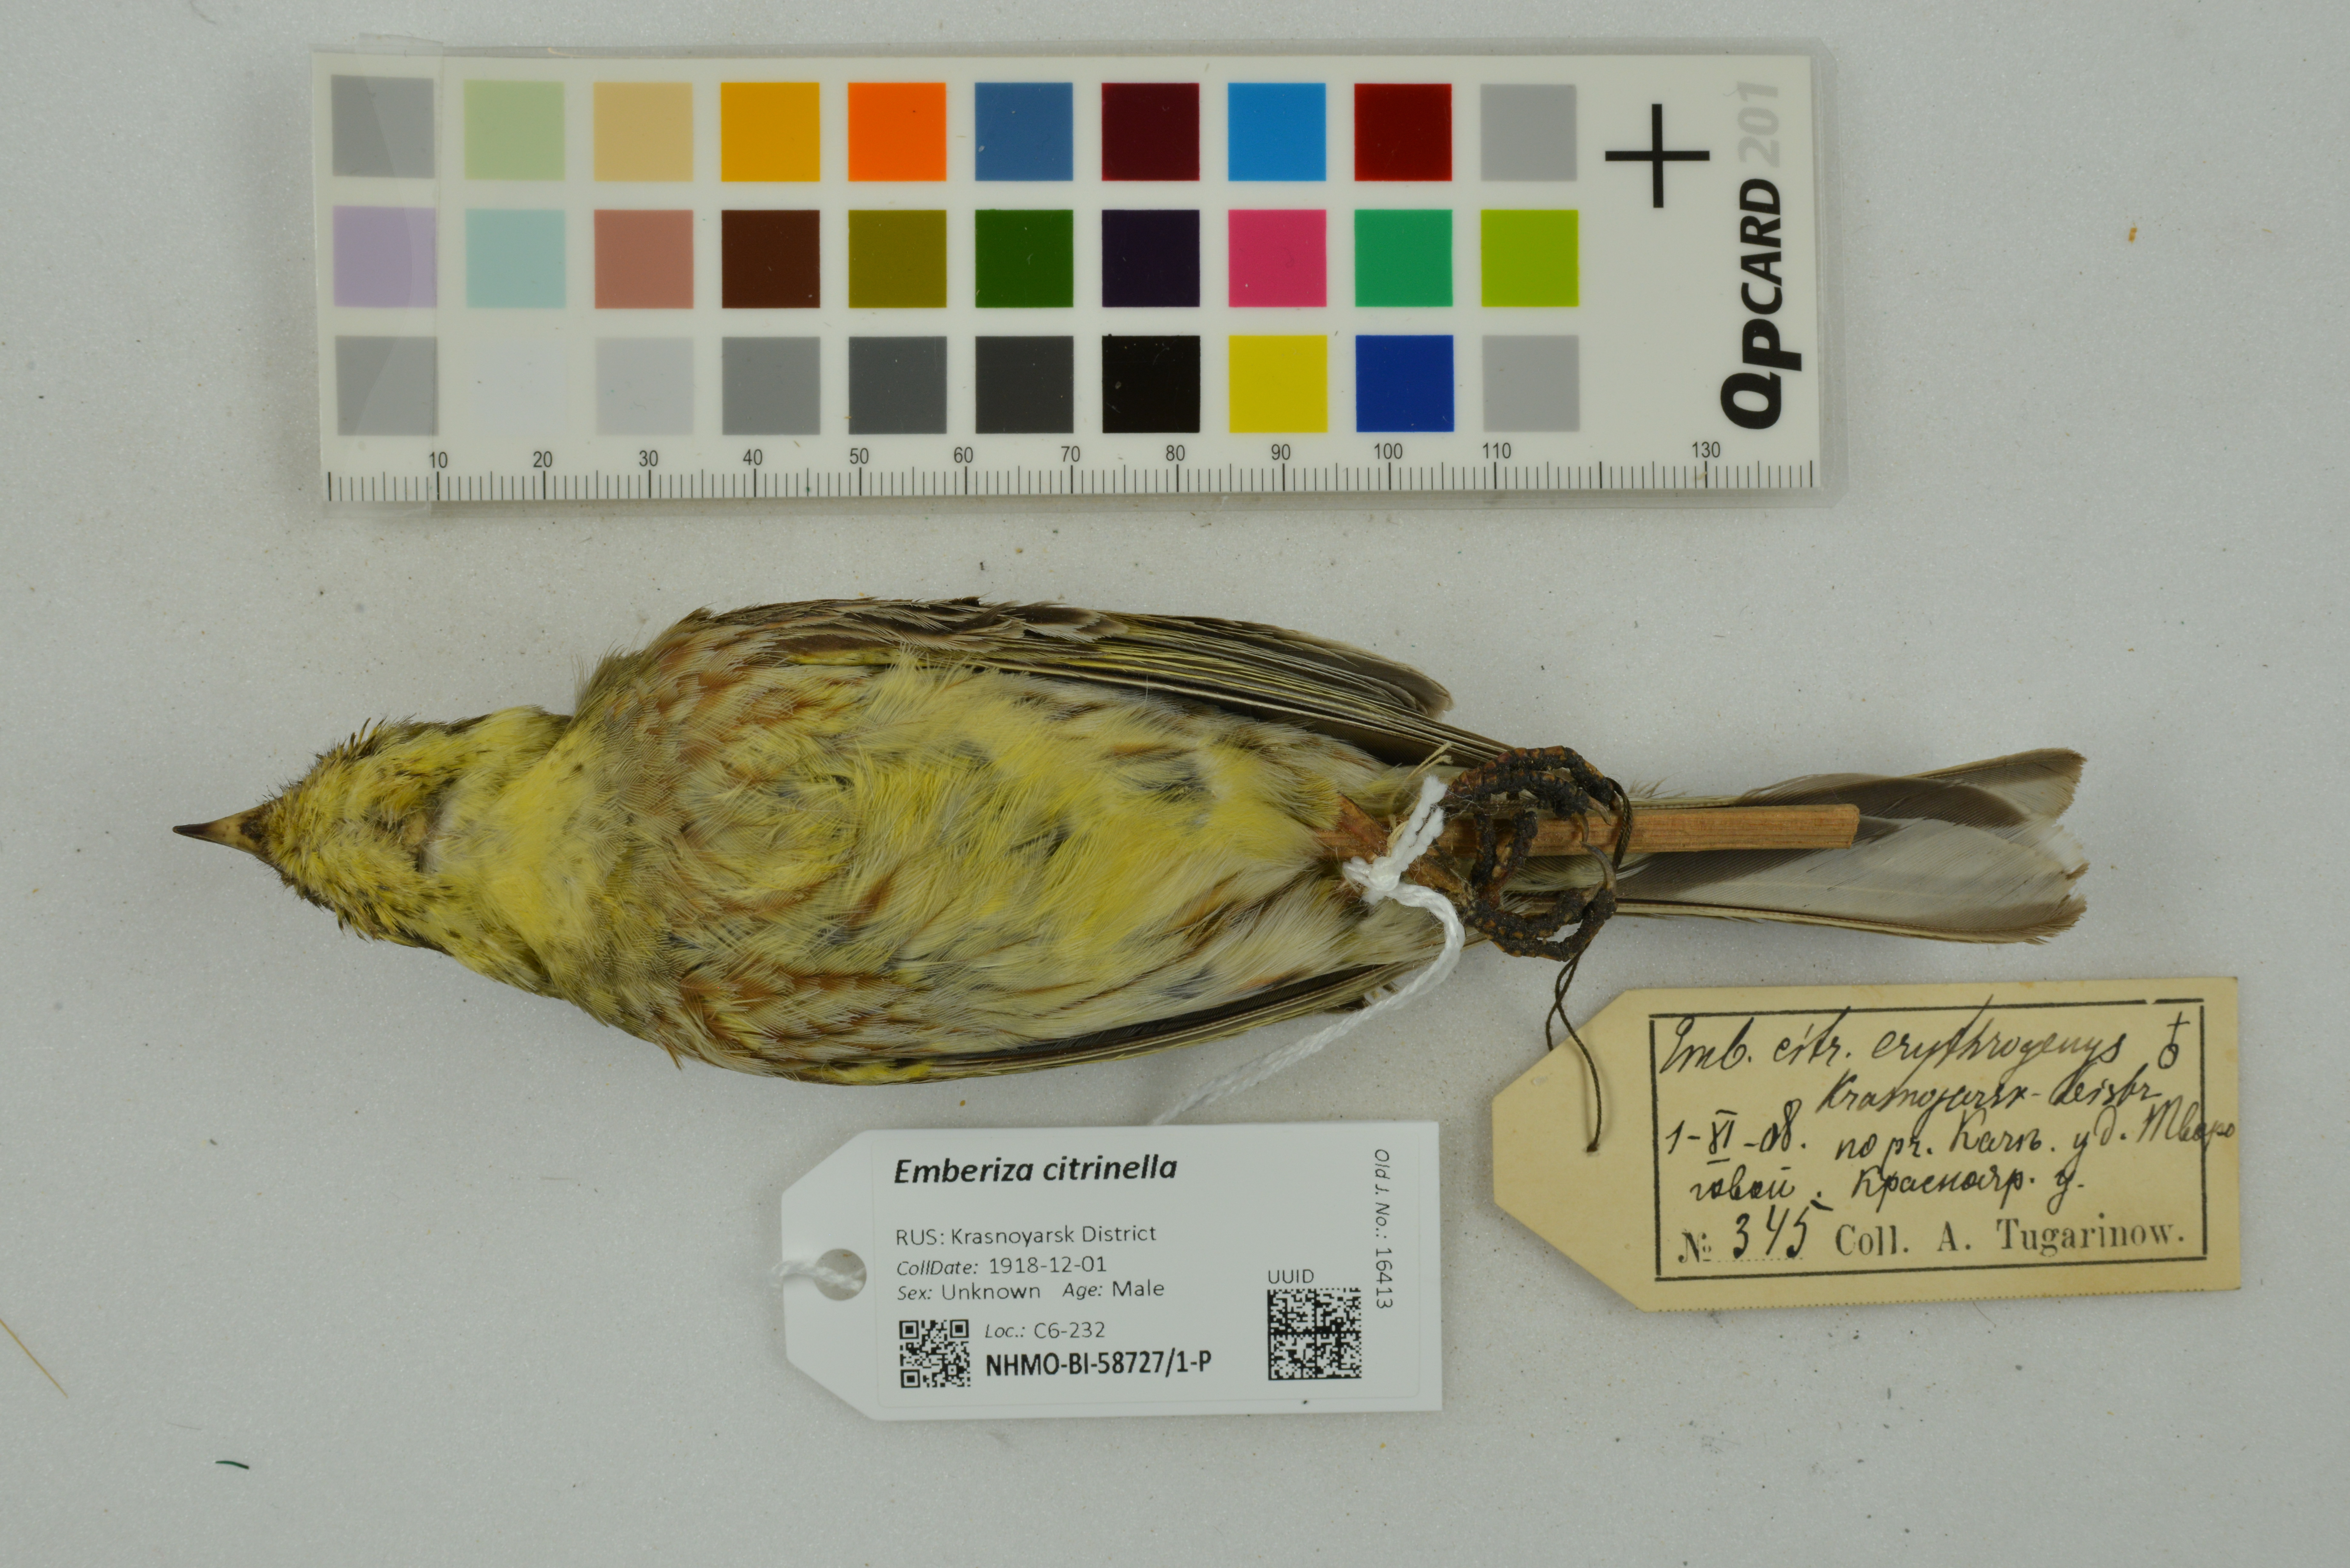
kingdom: Animalia
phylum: Chordata
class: Aves
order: Passeriformes
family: Emberizidae
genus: Emberiza
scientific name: Emberiza citrinella
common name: Yellowhammer
